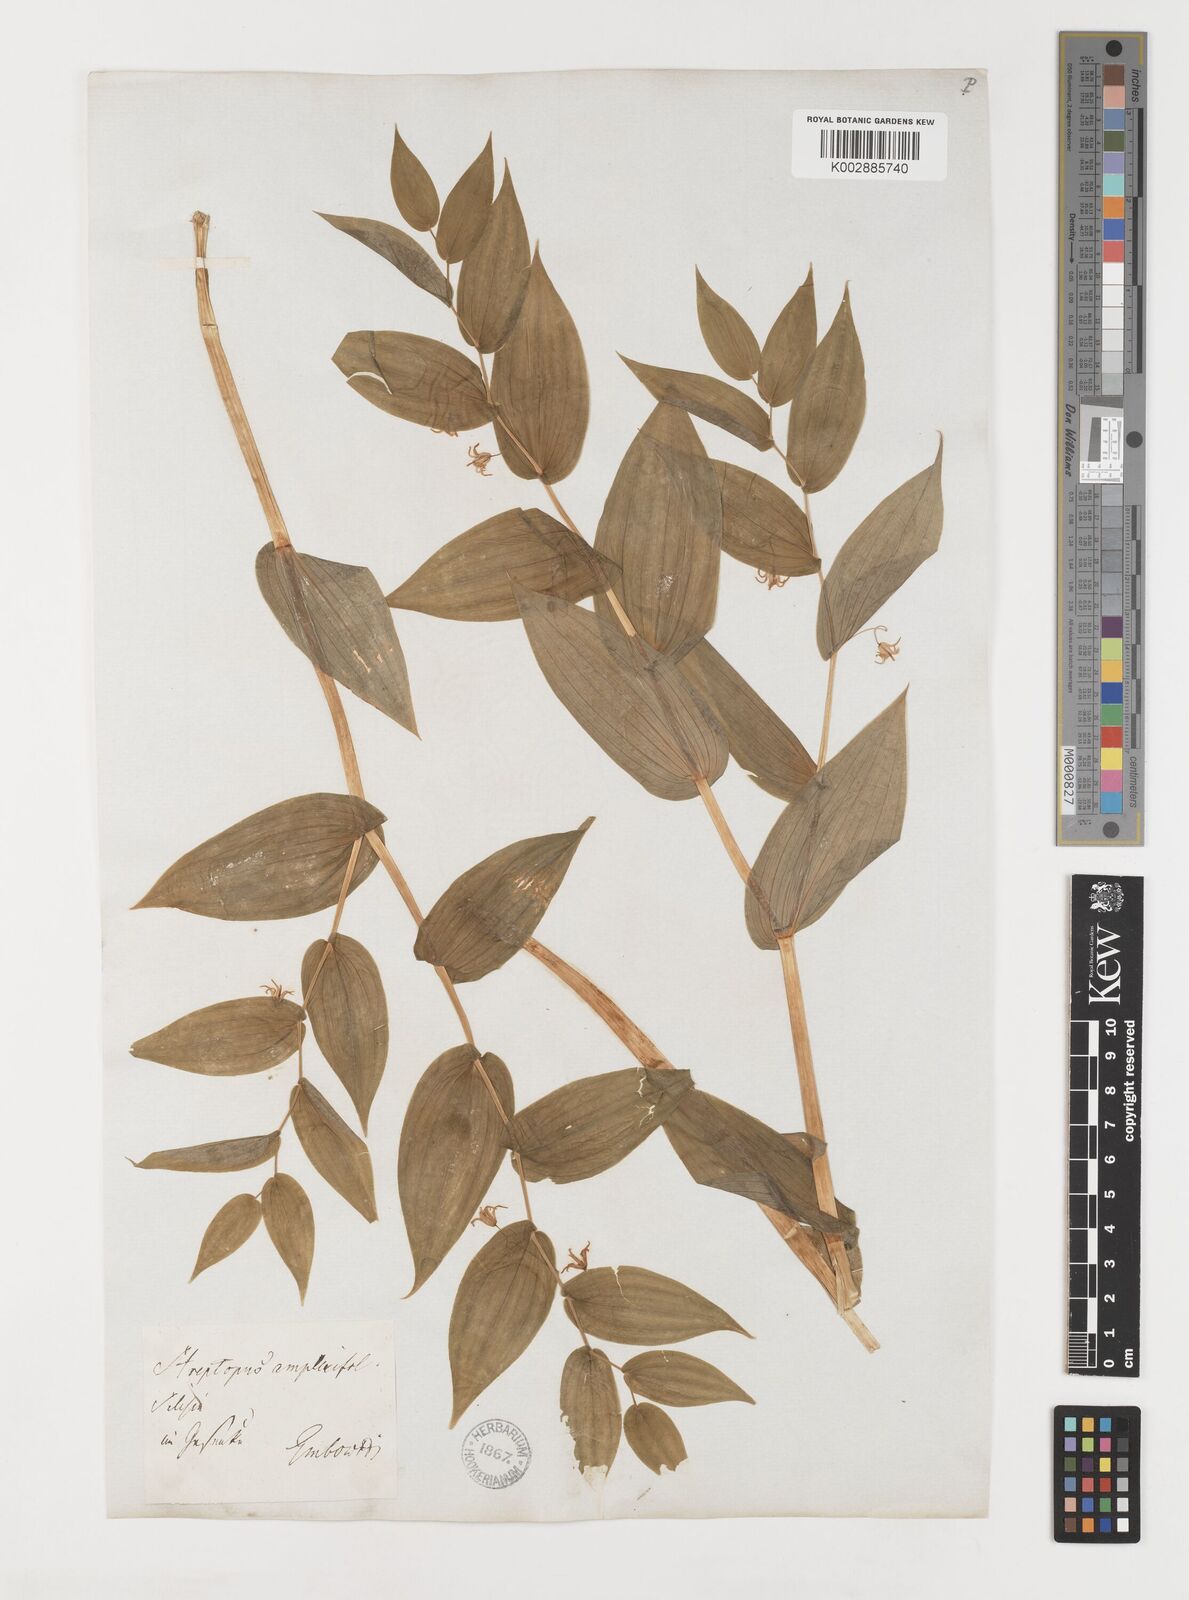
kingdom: Plantae
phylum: Tracheophyta
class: Liliopsida
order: Liliales
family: Liliaceae
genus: Streptopus
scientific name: Streptopus amplexifolius
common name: Clasp twisted stalk
